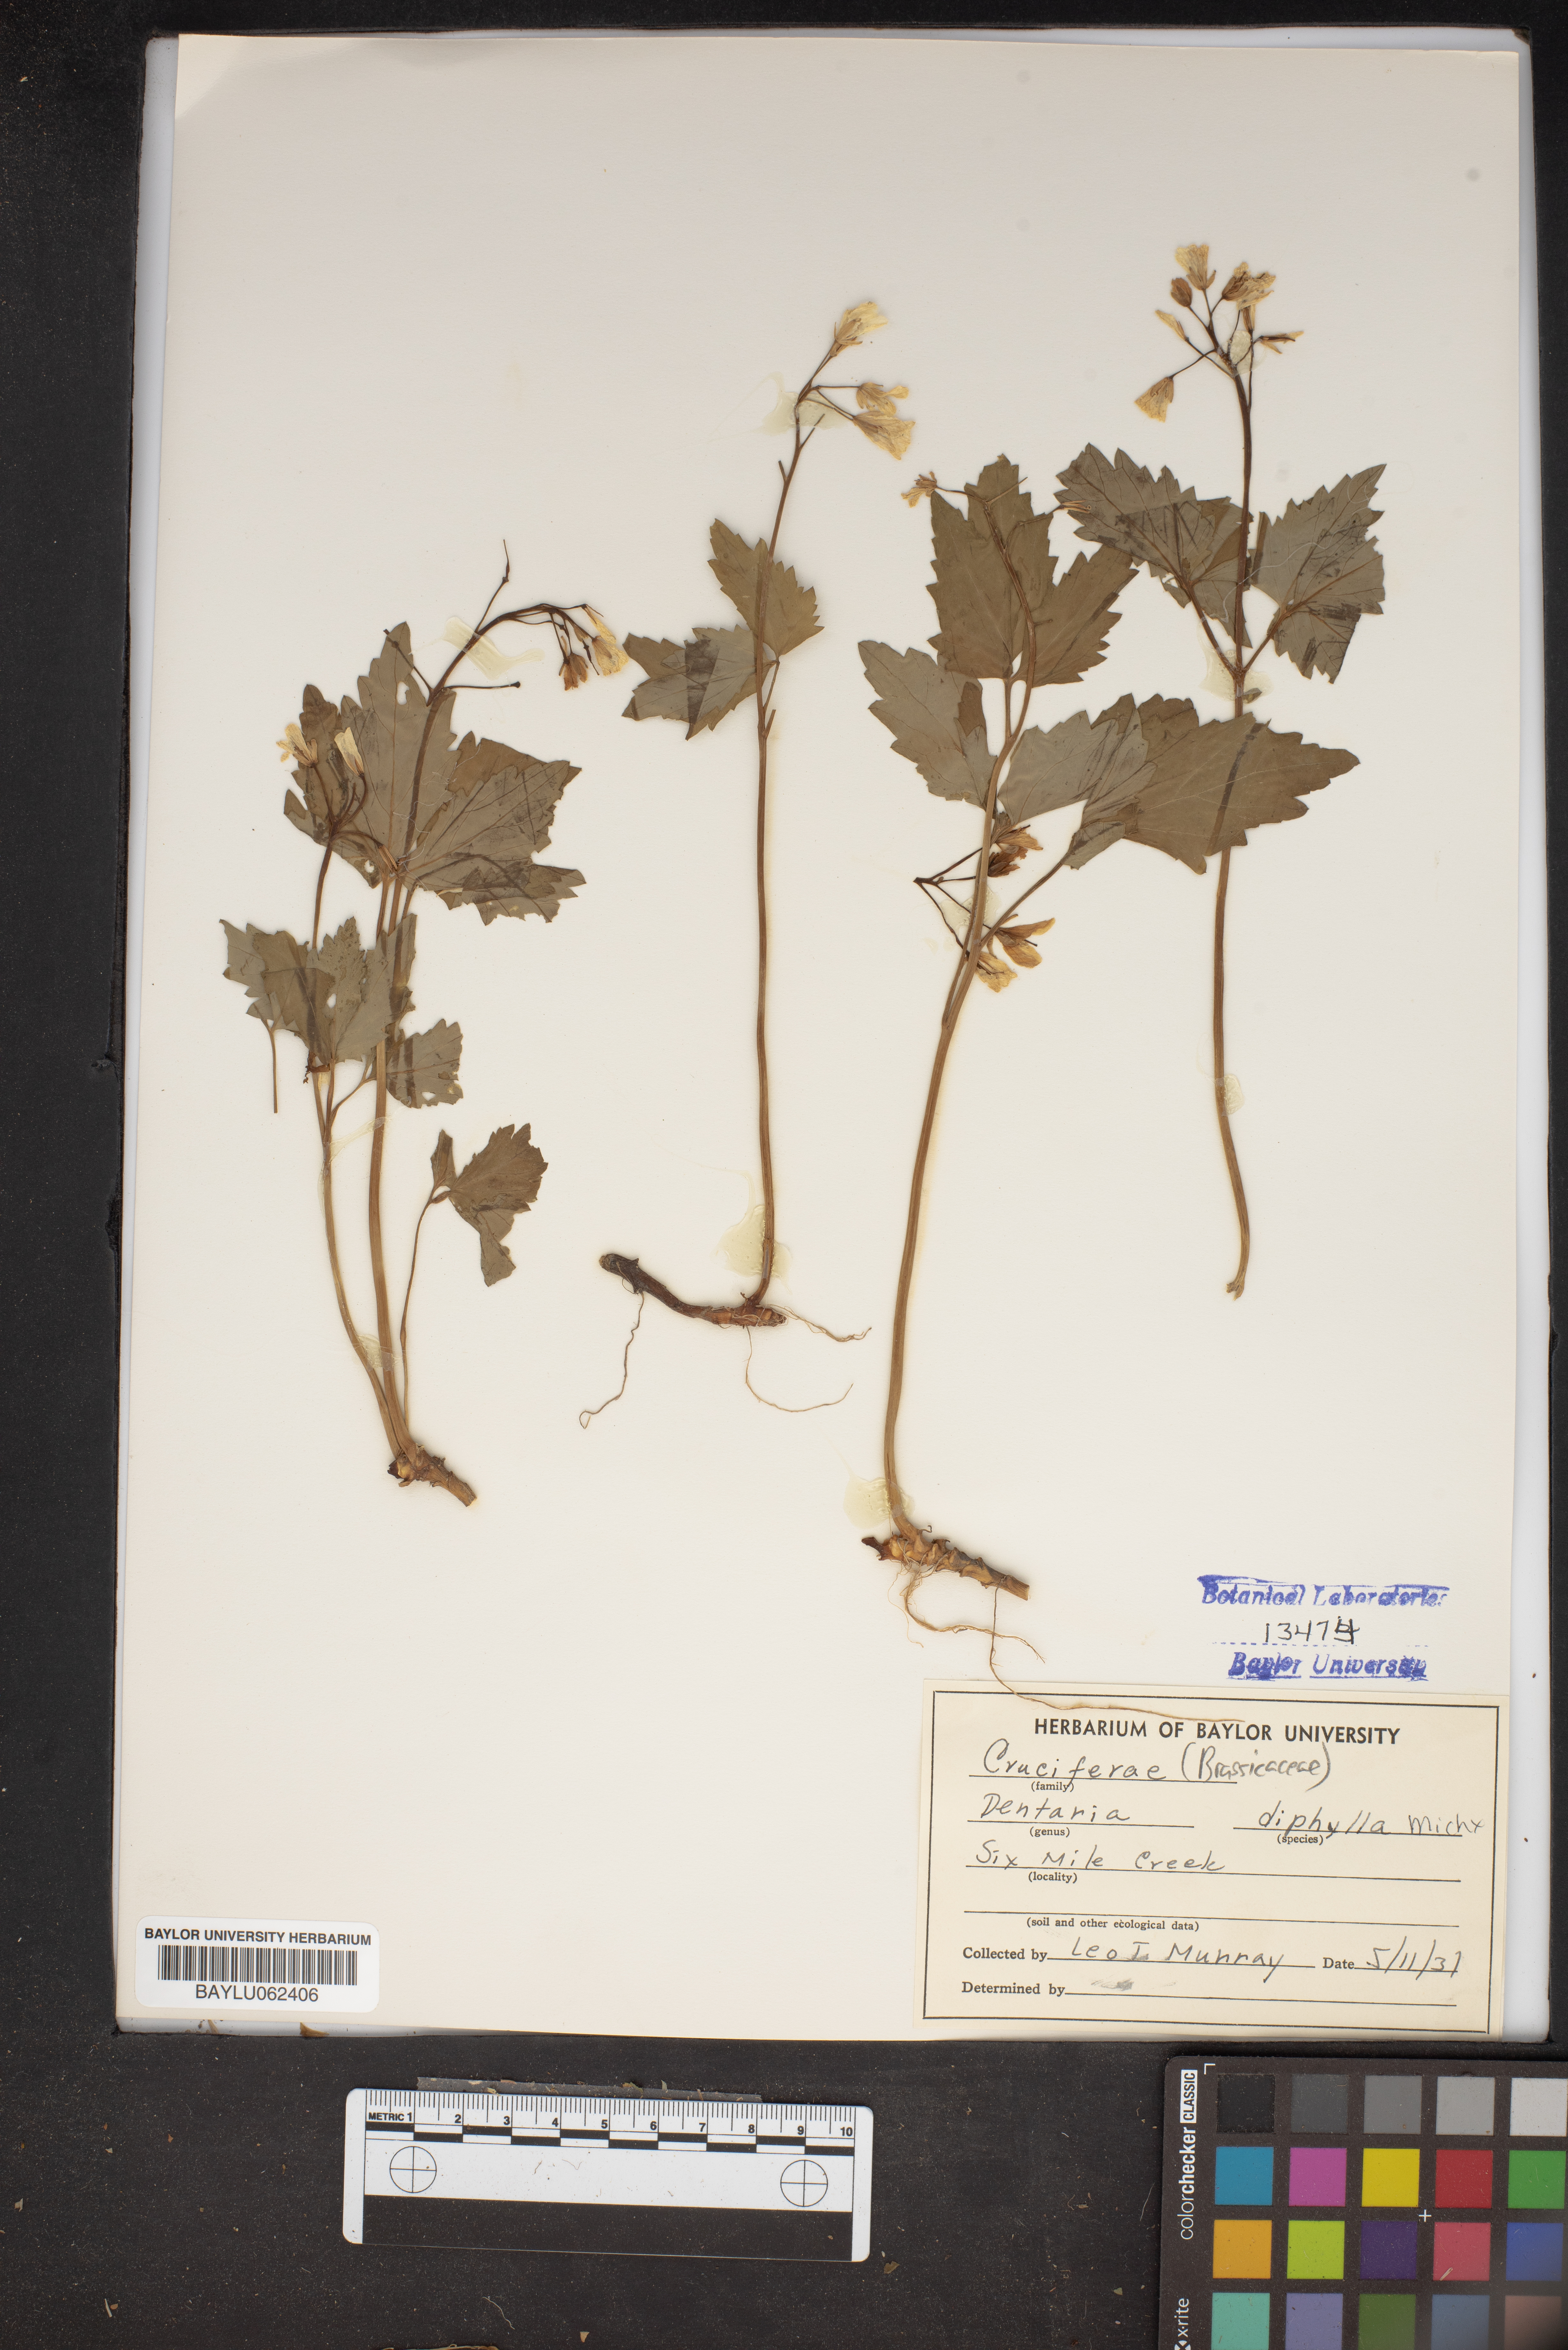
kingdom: Plantae
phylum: Tracheophyta
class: Magnoliopsida
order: Brassicales
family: Brassicaceae
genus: Cardamine
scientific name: Cardamine diphylla
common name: Broad-leaved toothwort
